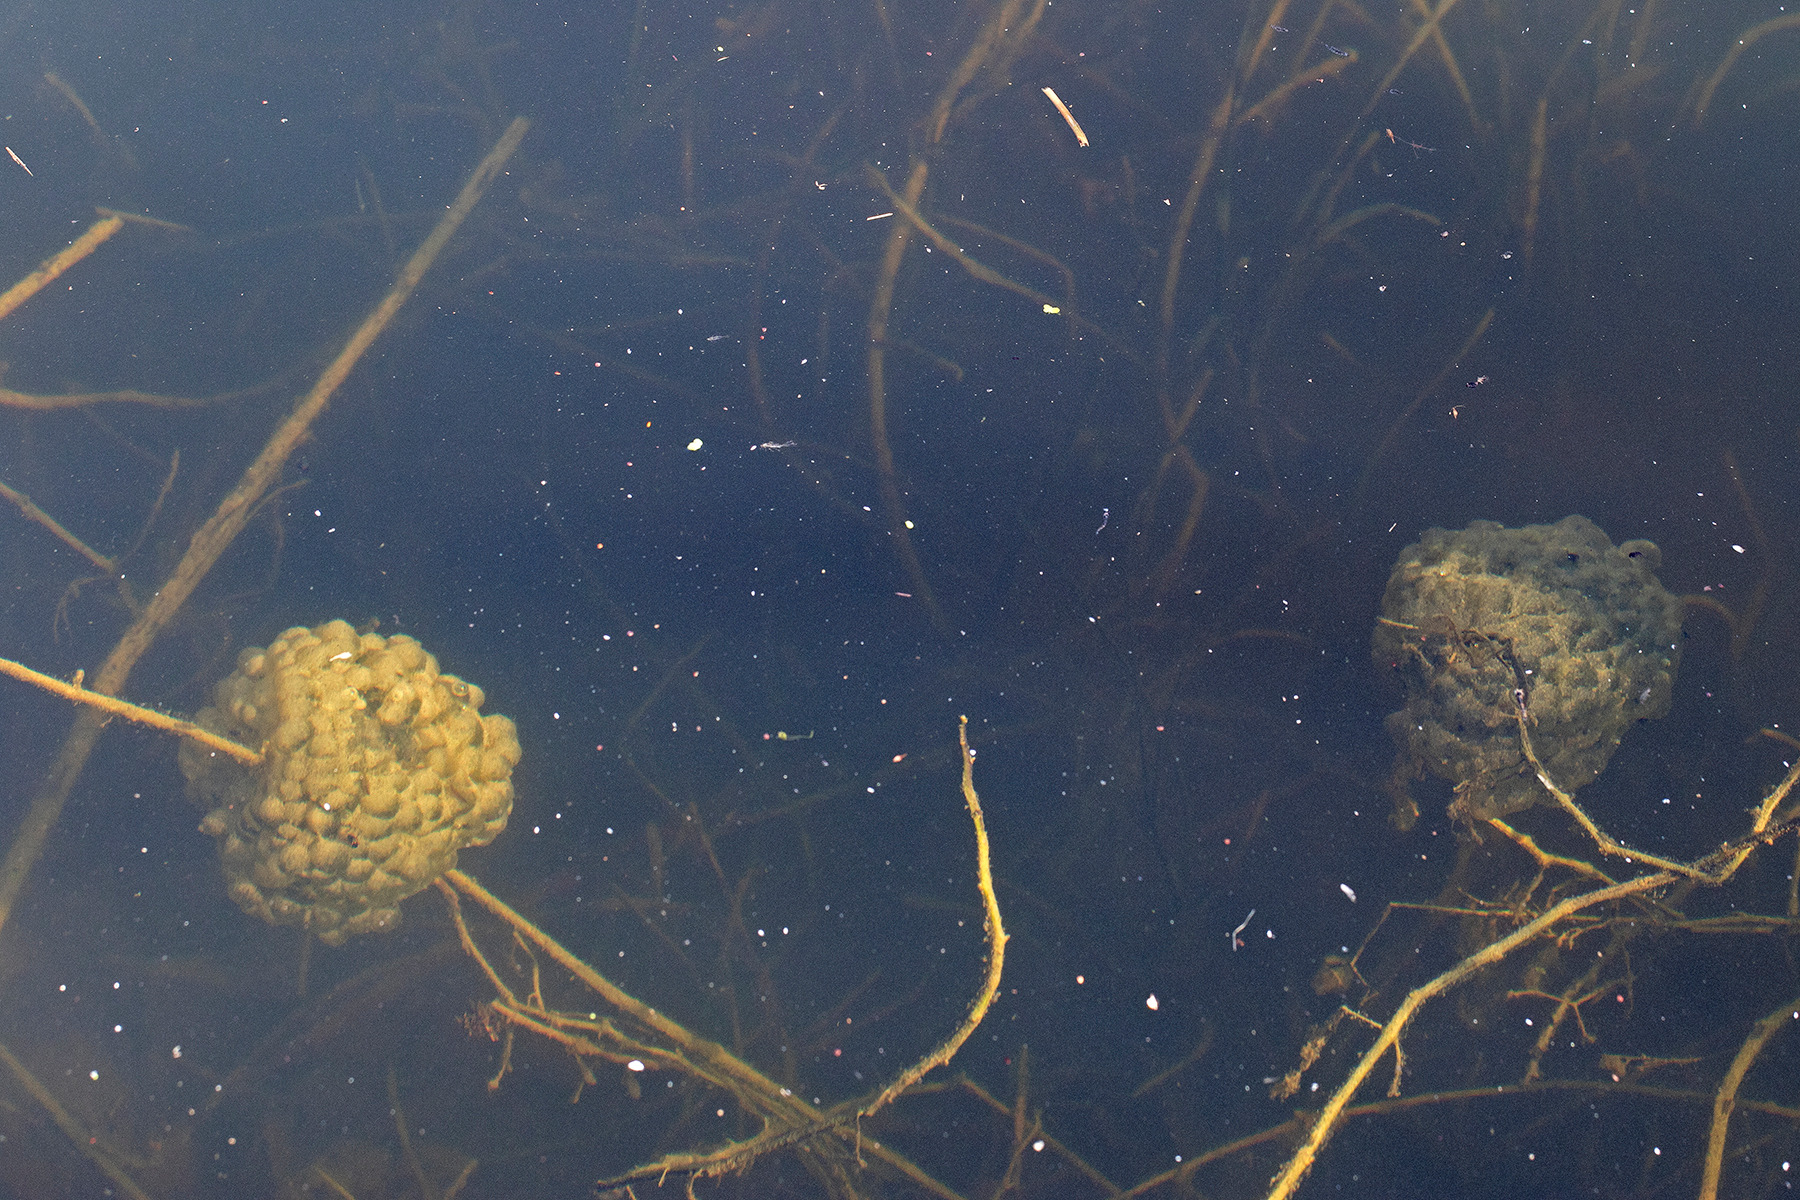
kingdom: Animalia
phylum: Chordata
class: Amphibia
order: Anura
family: Ranidae
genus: Rana
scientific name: Rana dalmatina
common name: Springfrø
